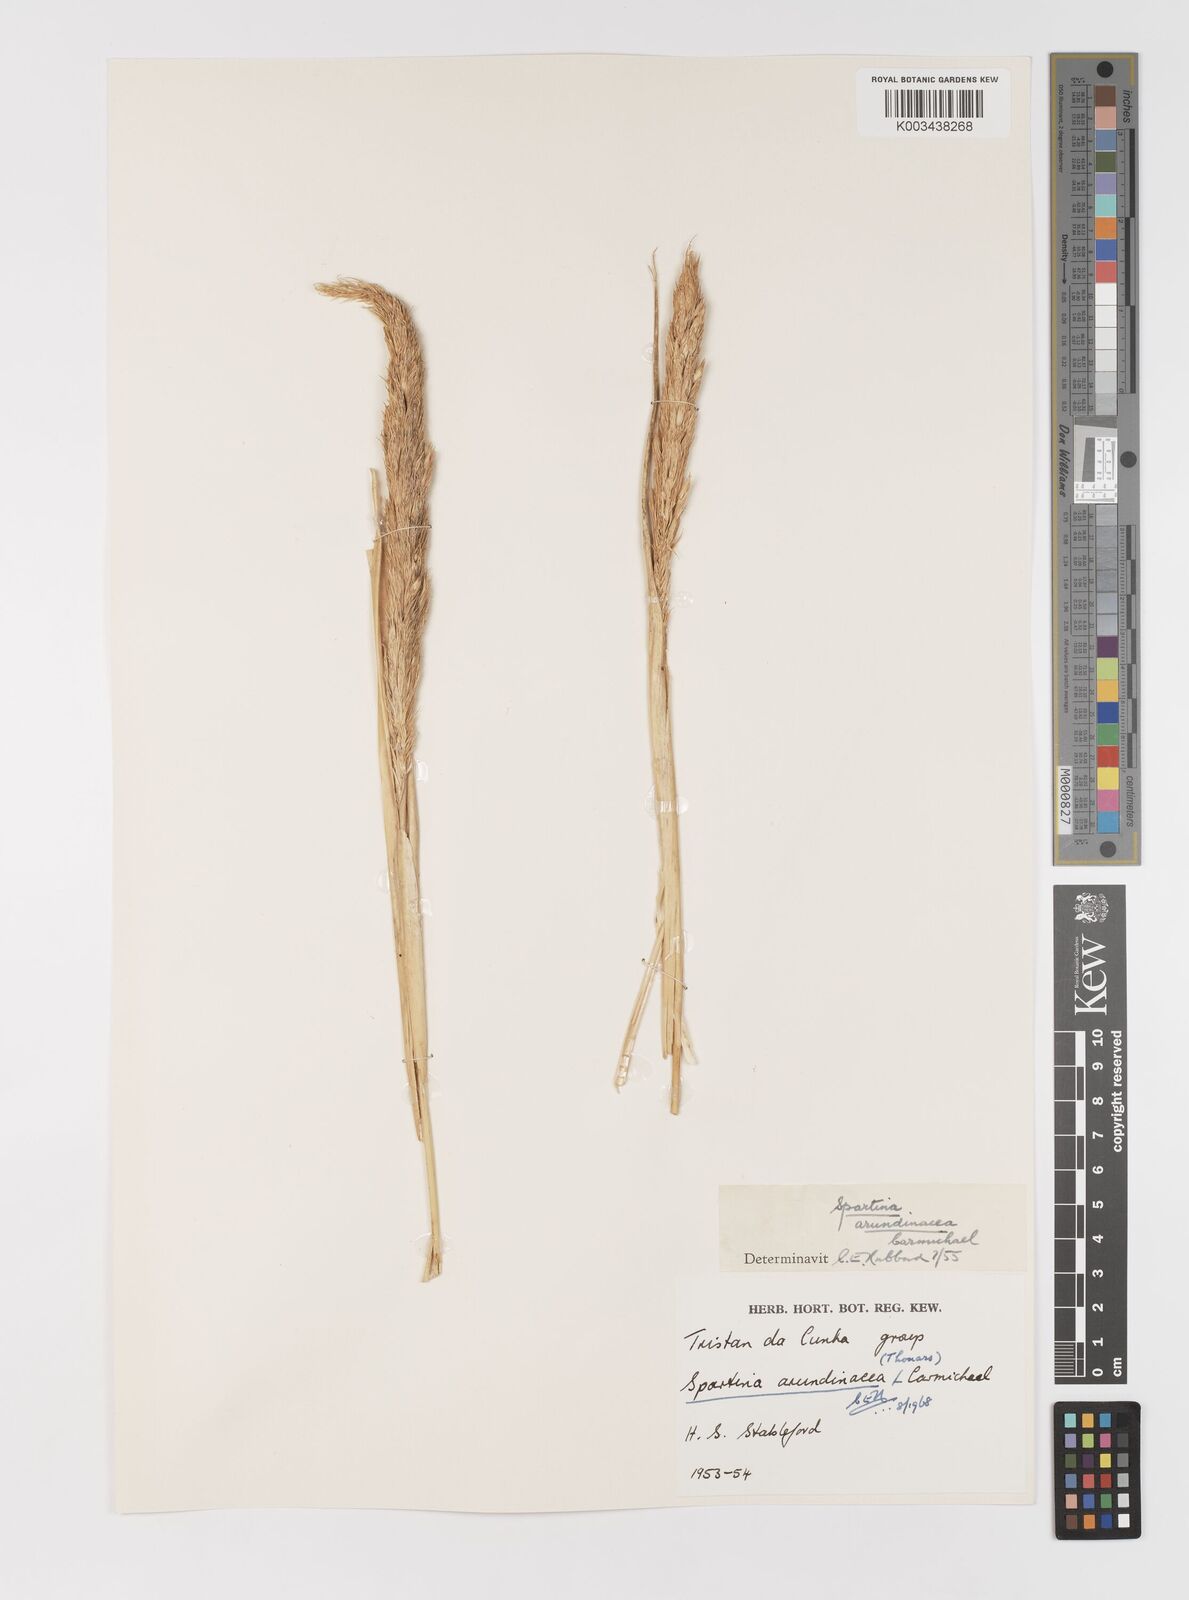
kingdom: Plantae
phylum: Tracheophyta
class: Liliopsida
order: Poales
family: Poaceae
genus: Sporobolus
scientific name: Sporobolus mobberleyanus
